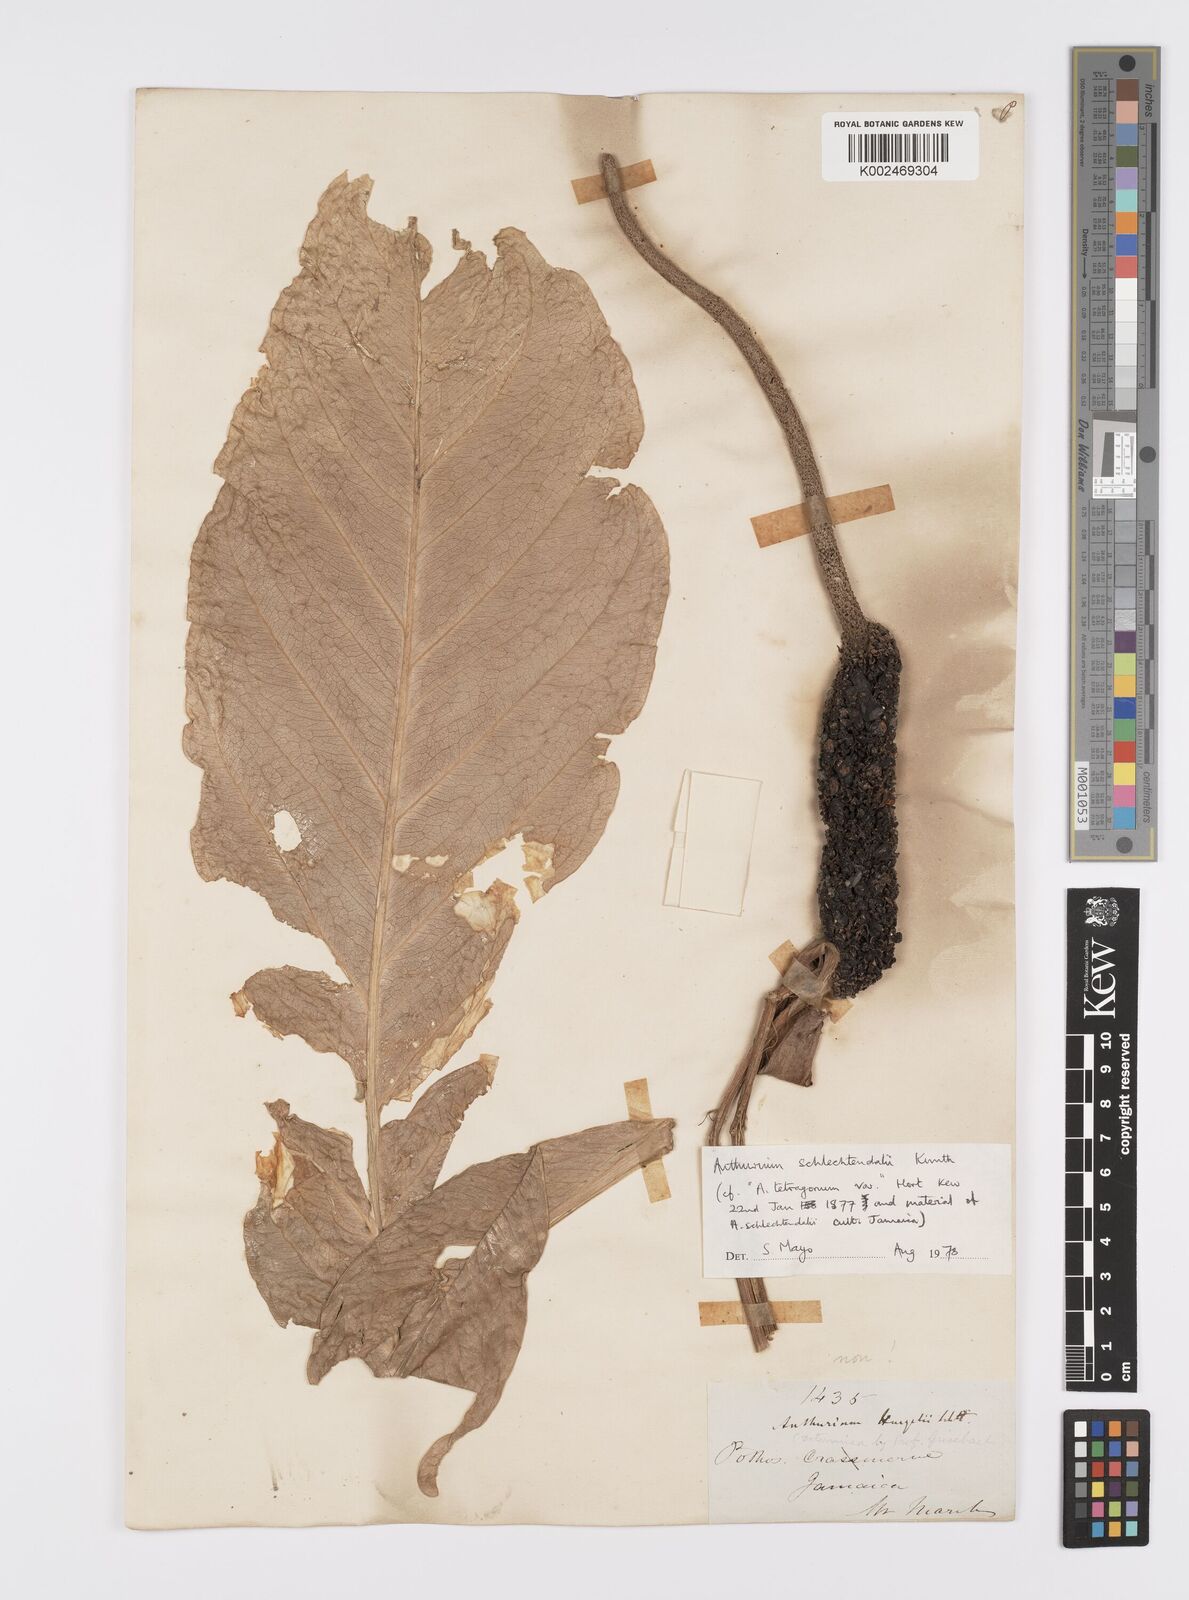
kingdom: Plantae
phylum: Tracheophyta
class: Liliopsida
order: Alismatales
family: Araceae
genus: Anthurium
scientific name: Anthurium schlechtendalii
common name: Laceleaf
